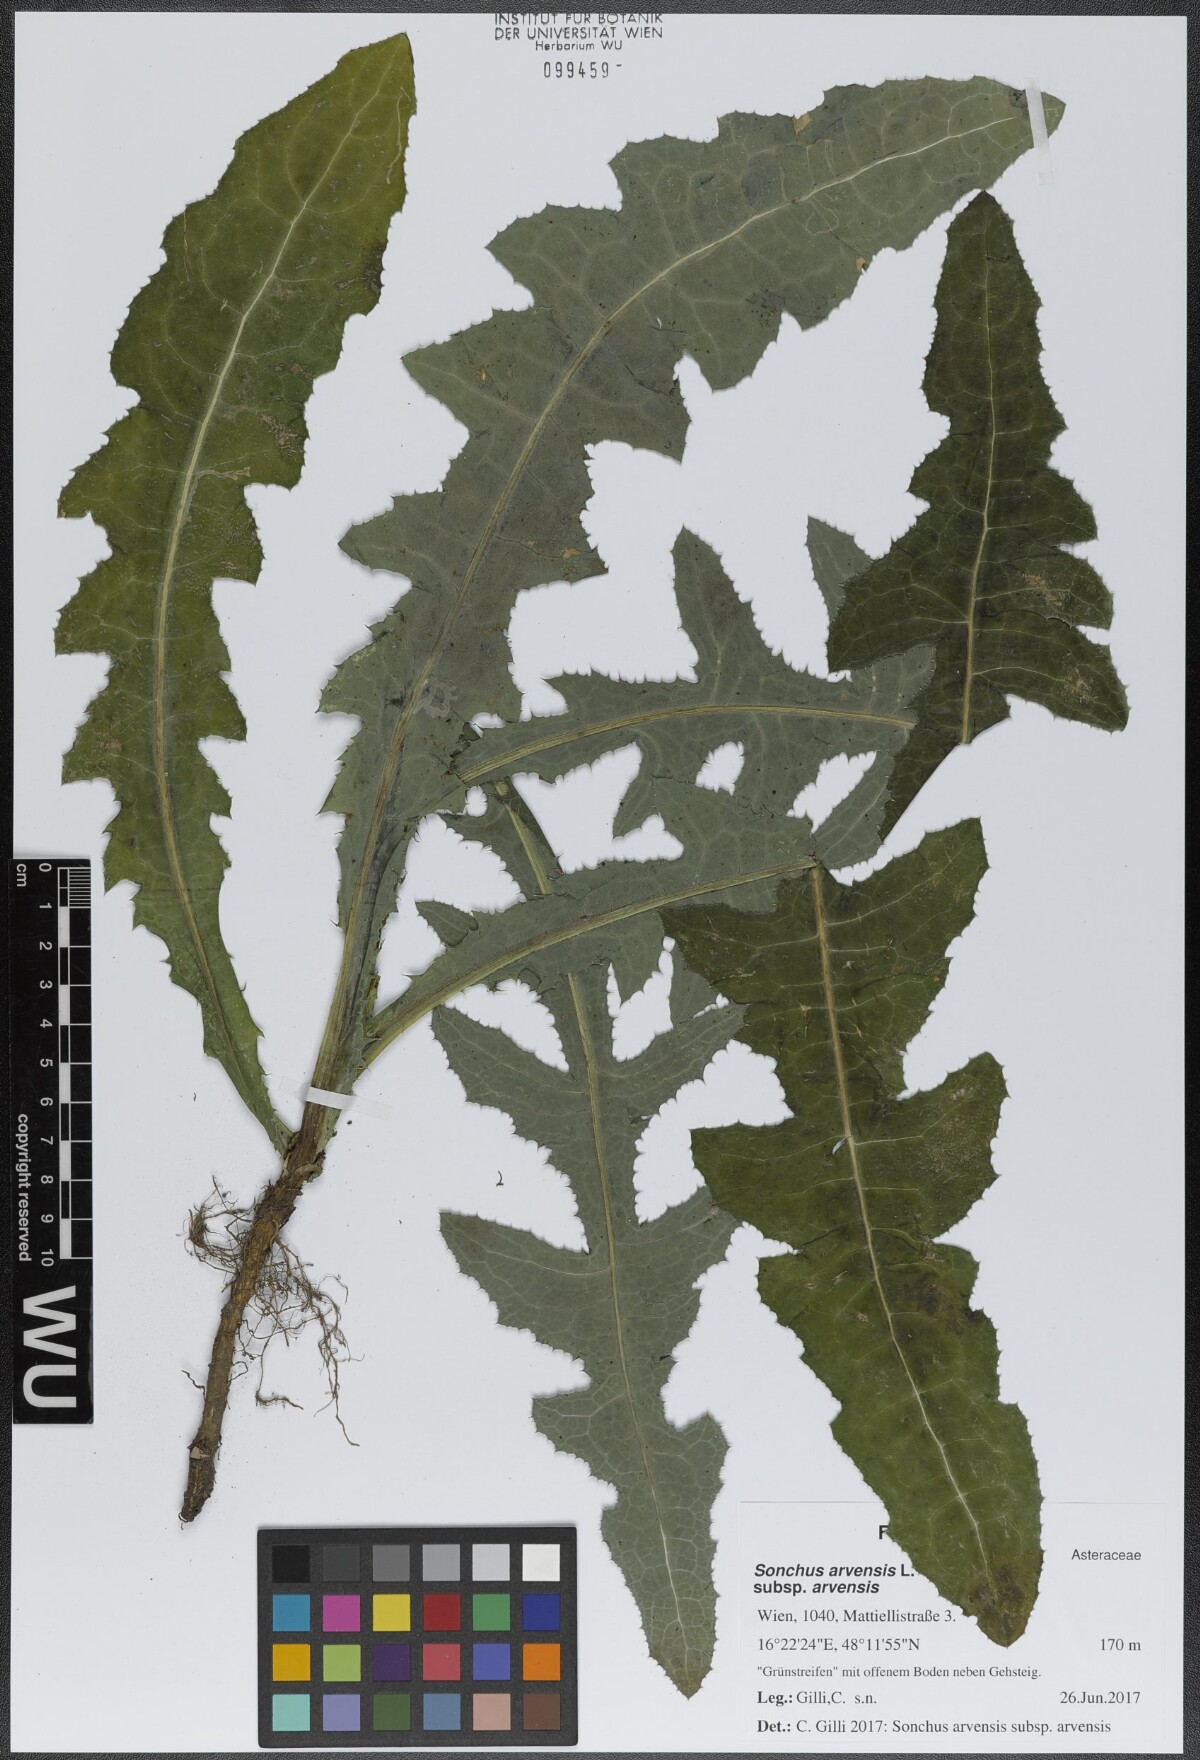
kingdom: Plantae
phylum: Tracheophyta
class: Magnoliopsida
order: Asterales
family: Asteraceae
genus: Sonchus
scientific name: Sonchus arvensis
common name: Perennial sow-thistle
